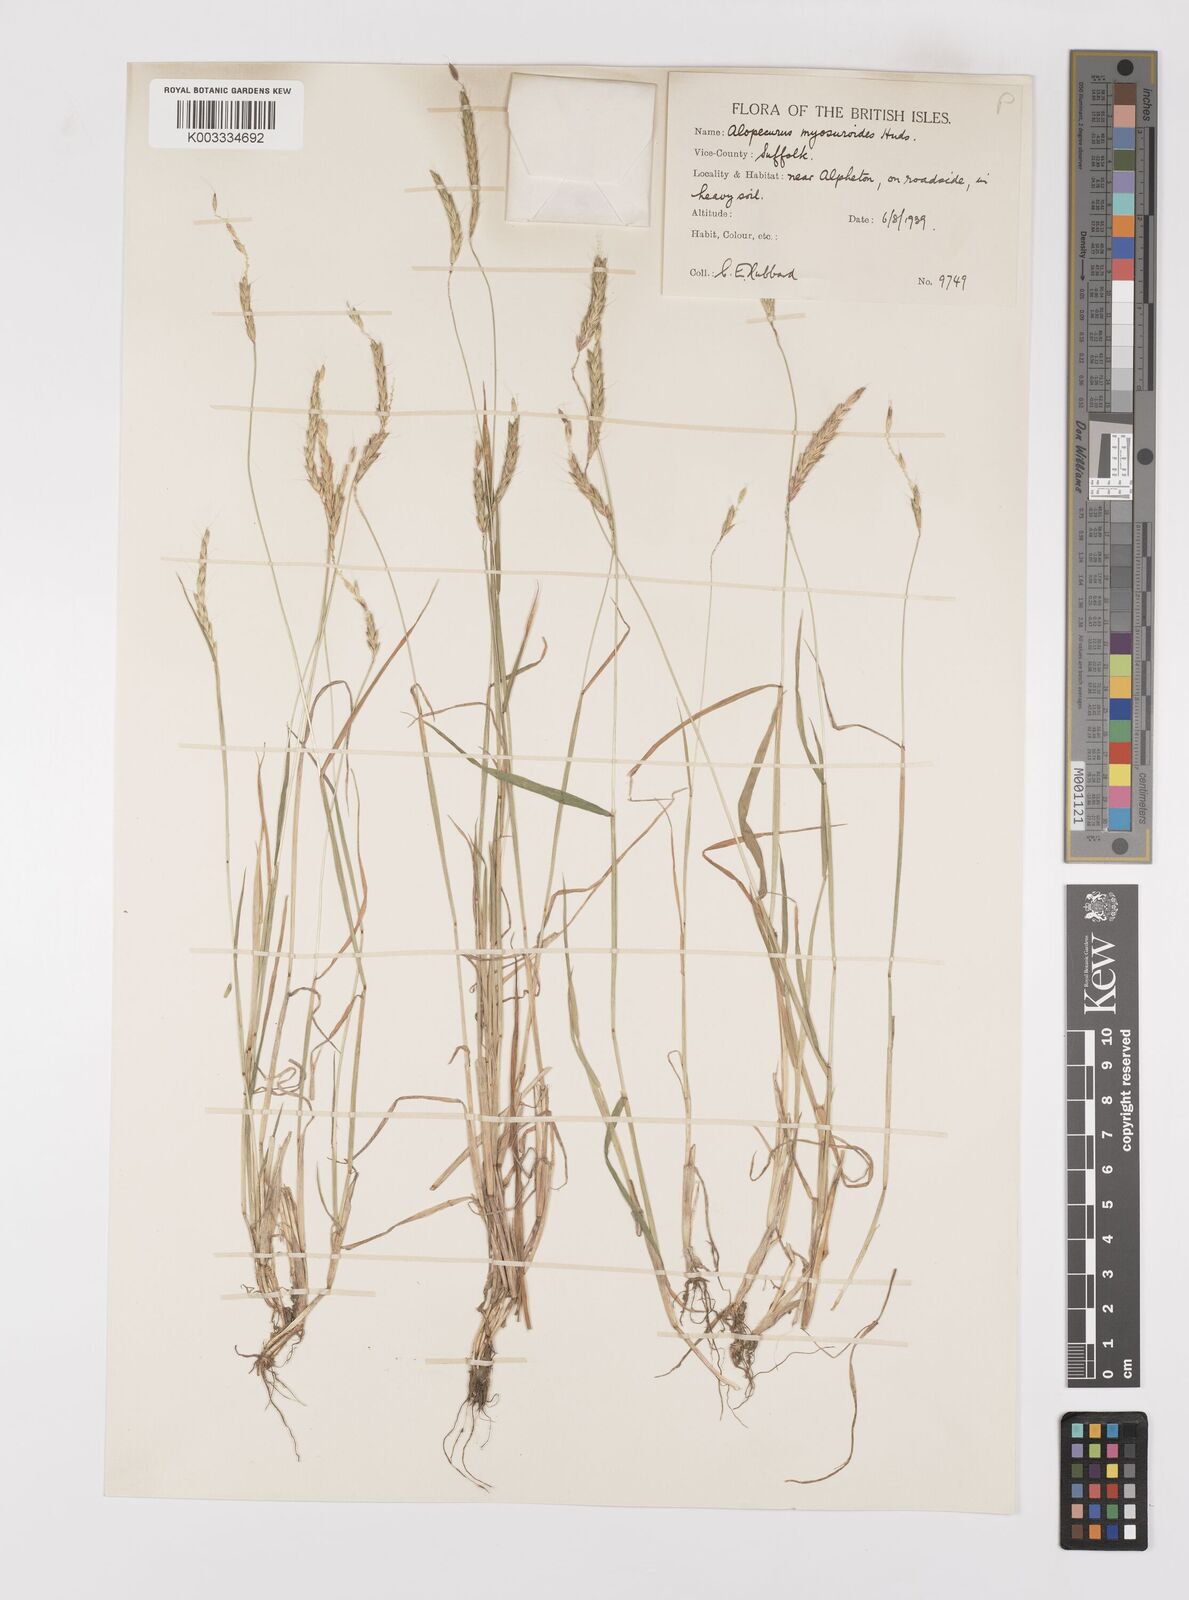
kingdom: Plantae
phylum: Tracheophyta
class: Liliopsida
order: Poales
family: Poaceae
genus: Alopecurus
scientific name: Alopecurus myosuroides
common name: Black-grass
